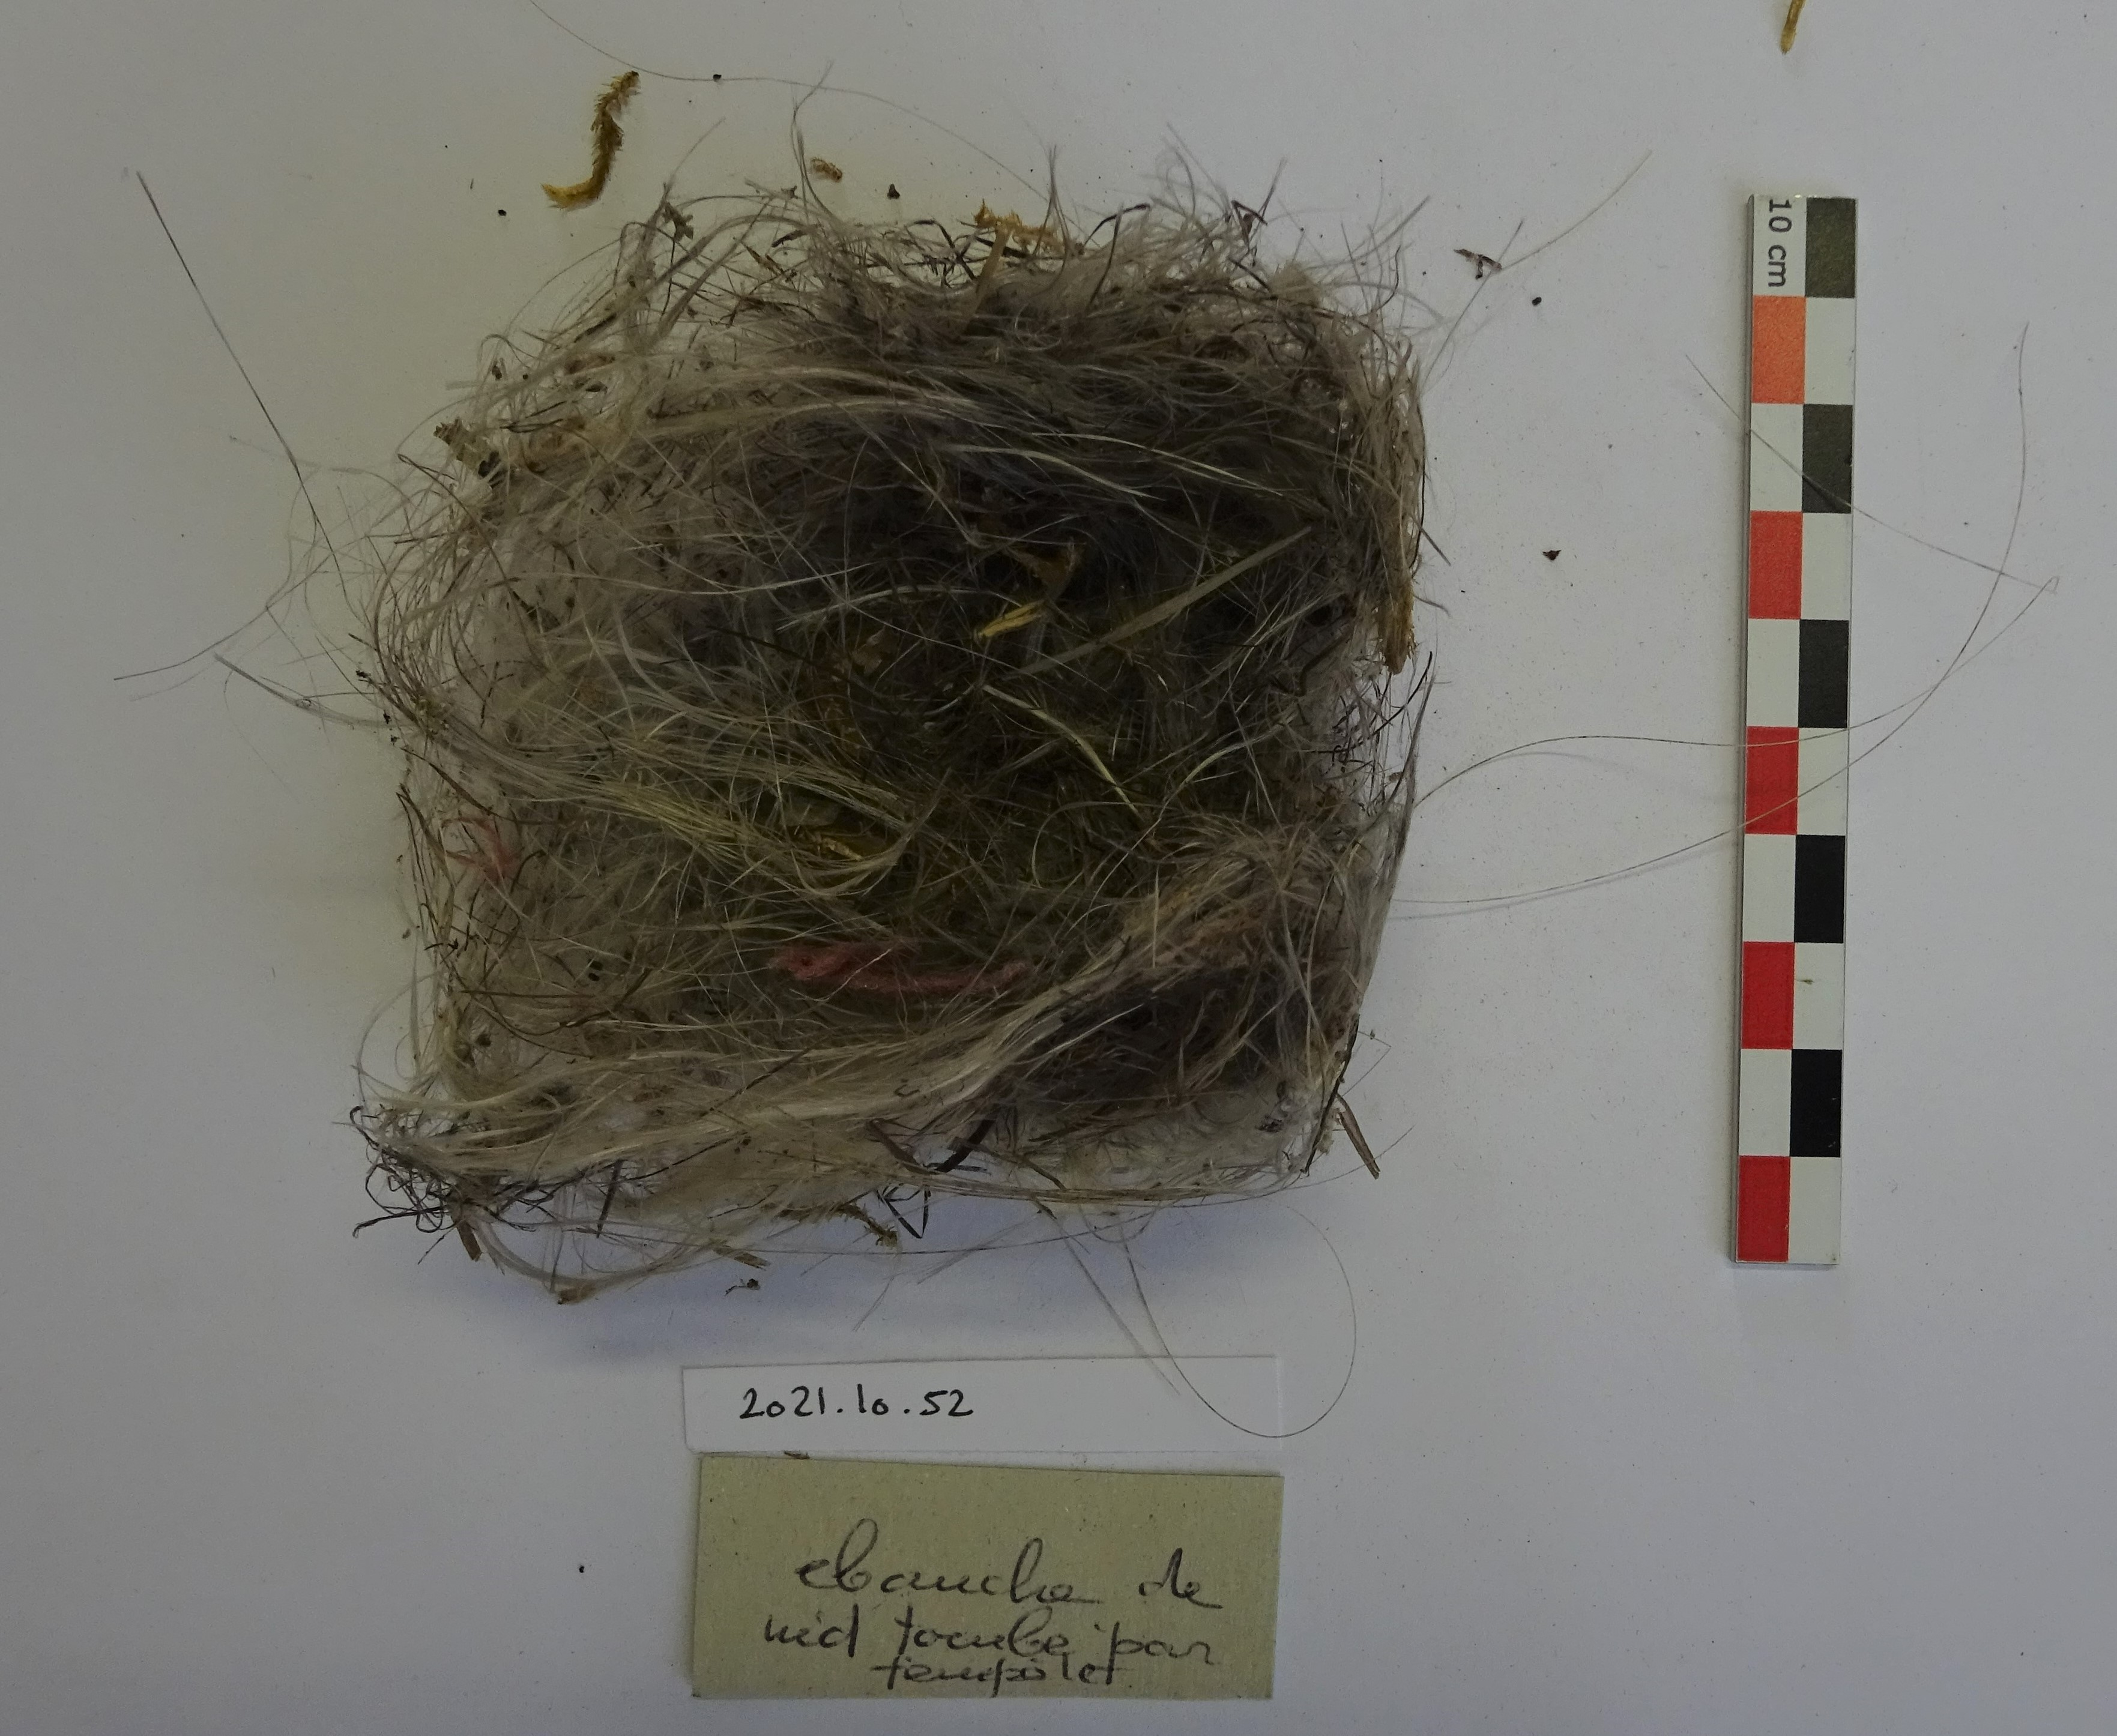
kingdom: Animalia
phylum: Chordata
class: Aves
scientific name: Aves
